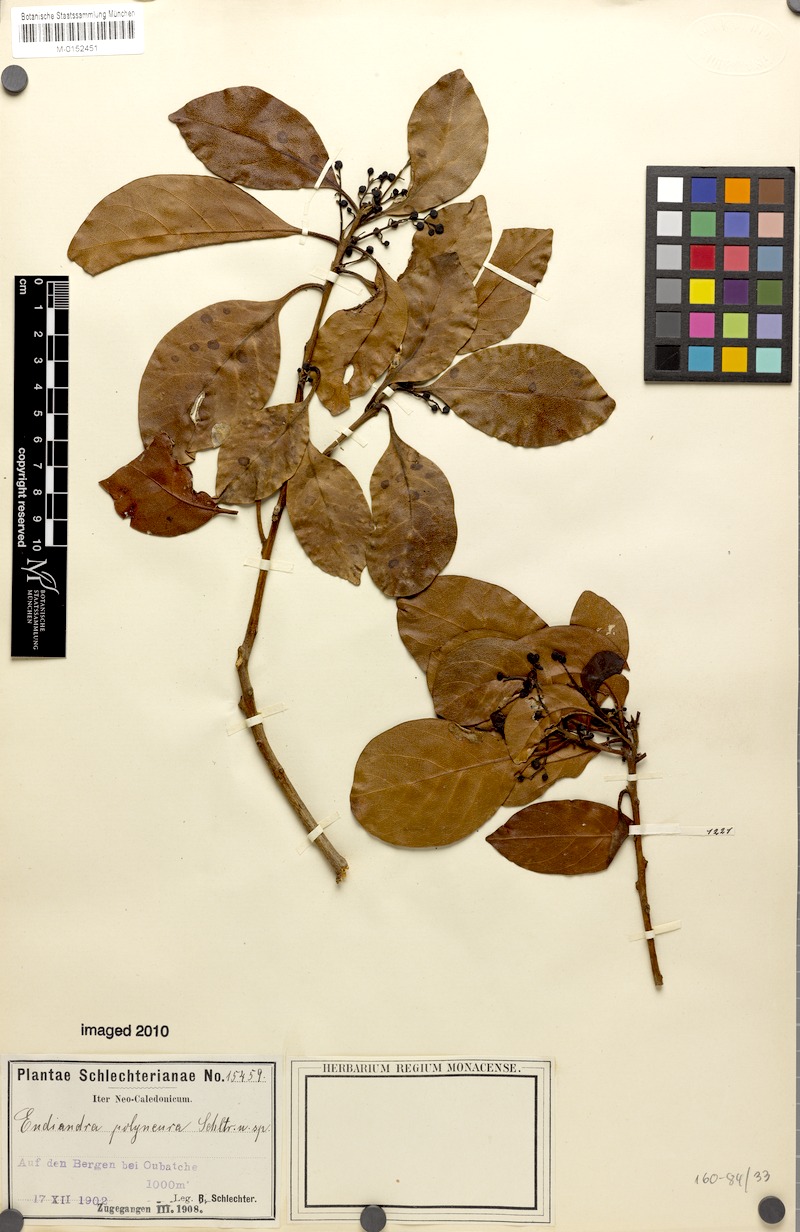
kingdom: Plantae
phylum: Tracheophyta
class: Magnoliopsida
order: Laurales
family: Lauraceae
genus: Endiandra
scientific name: Endiandra polyneura
